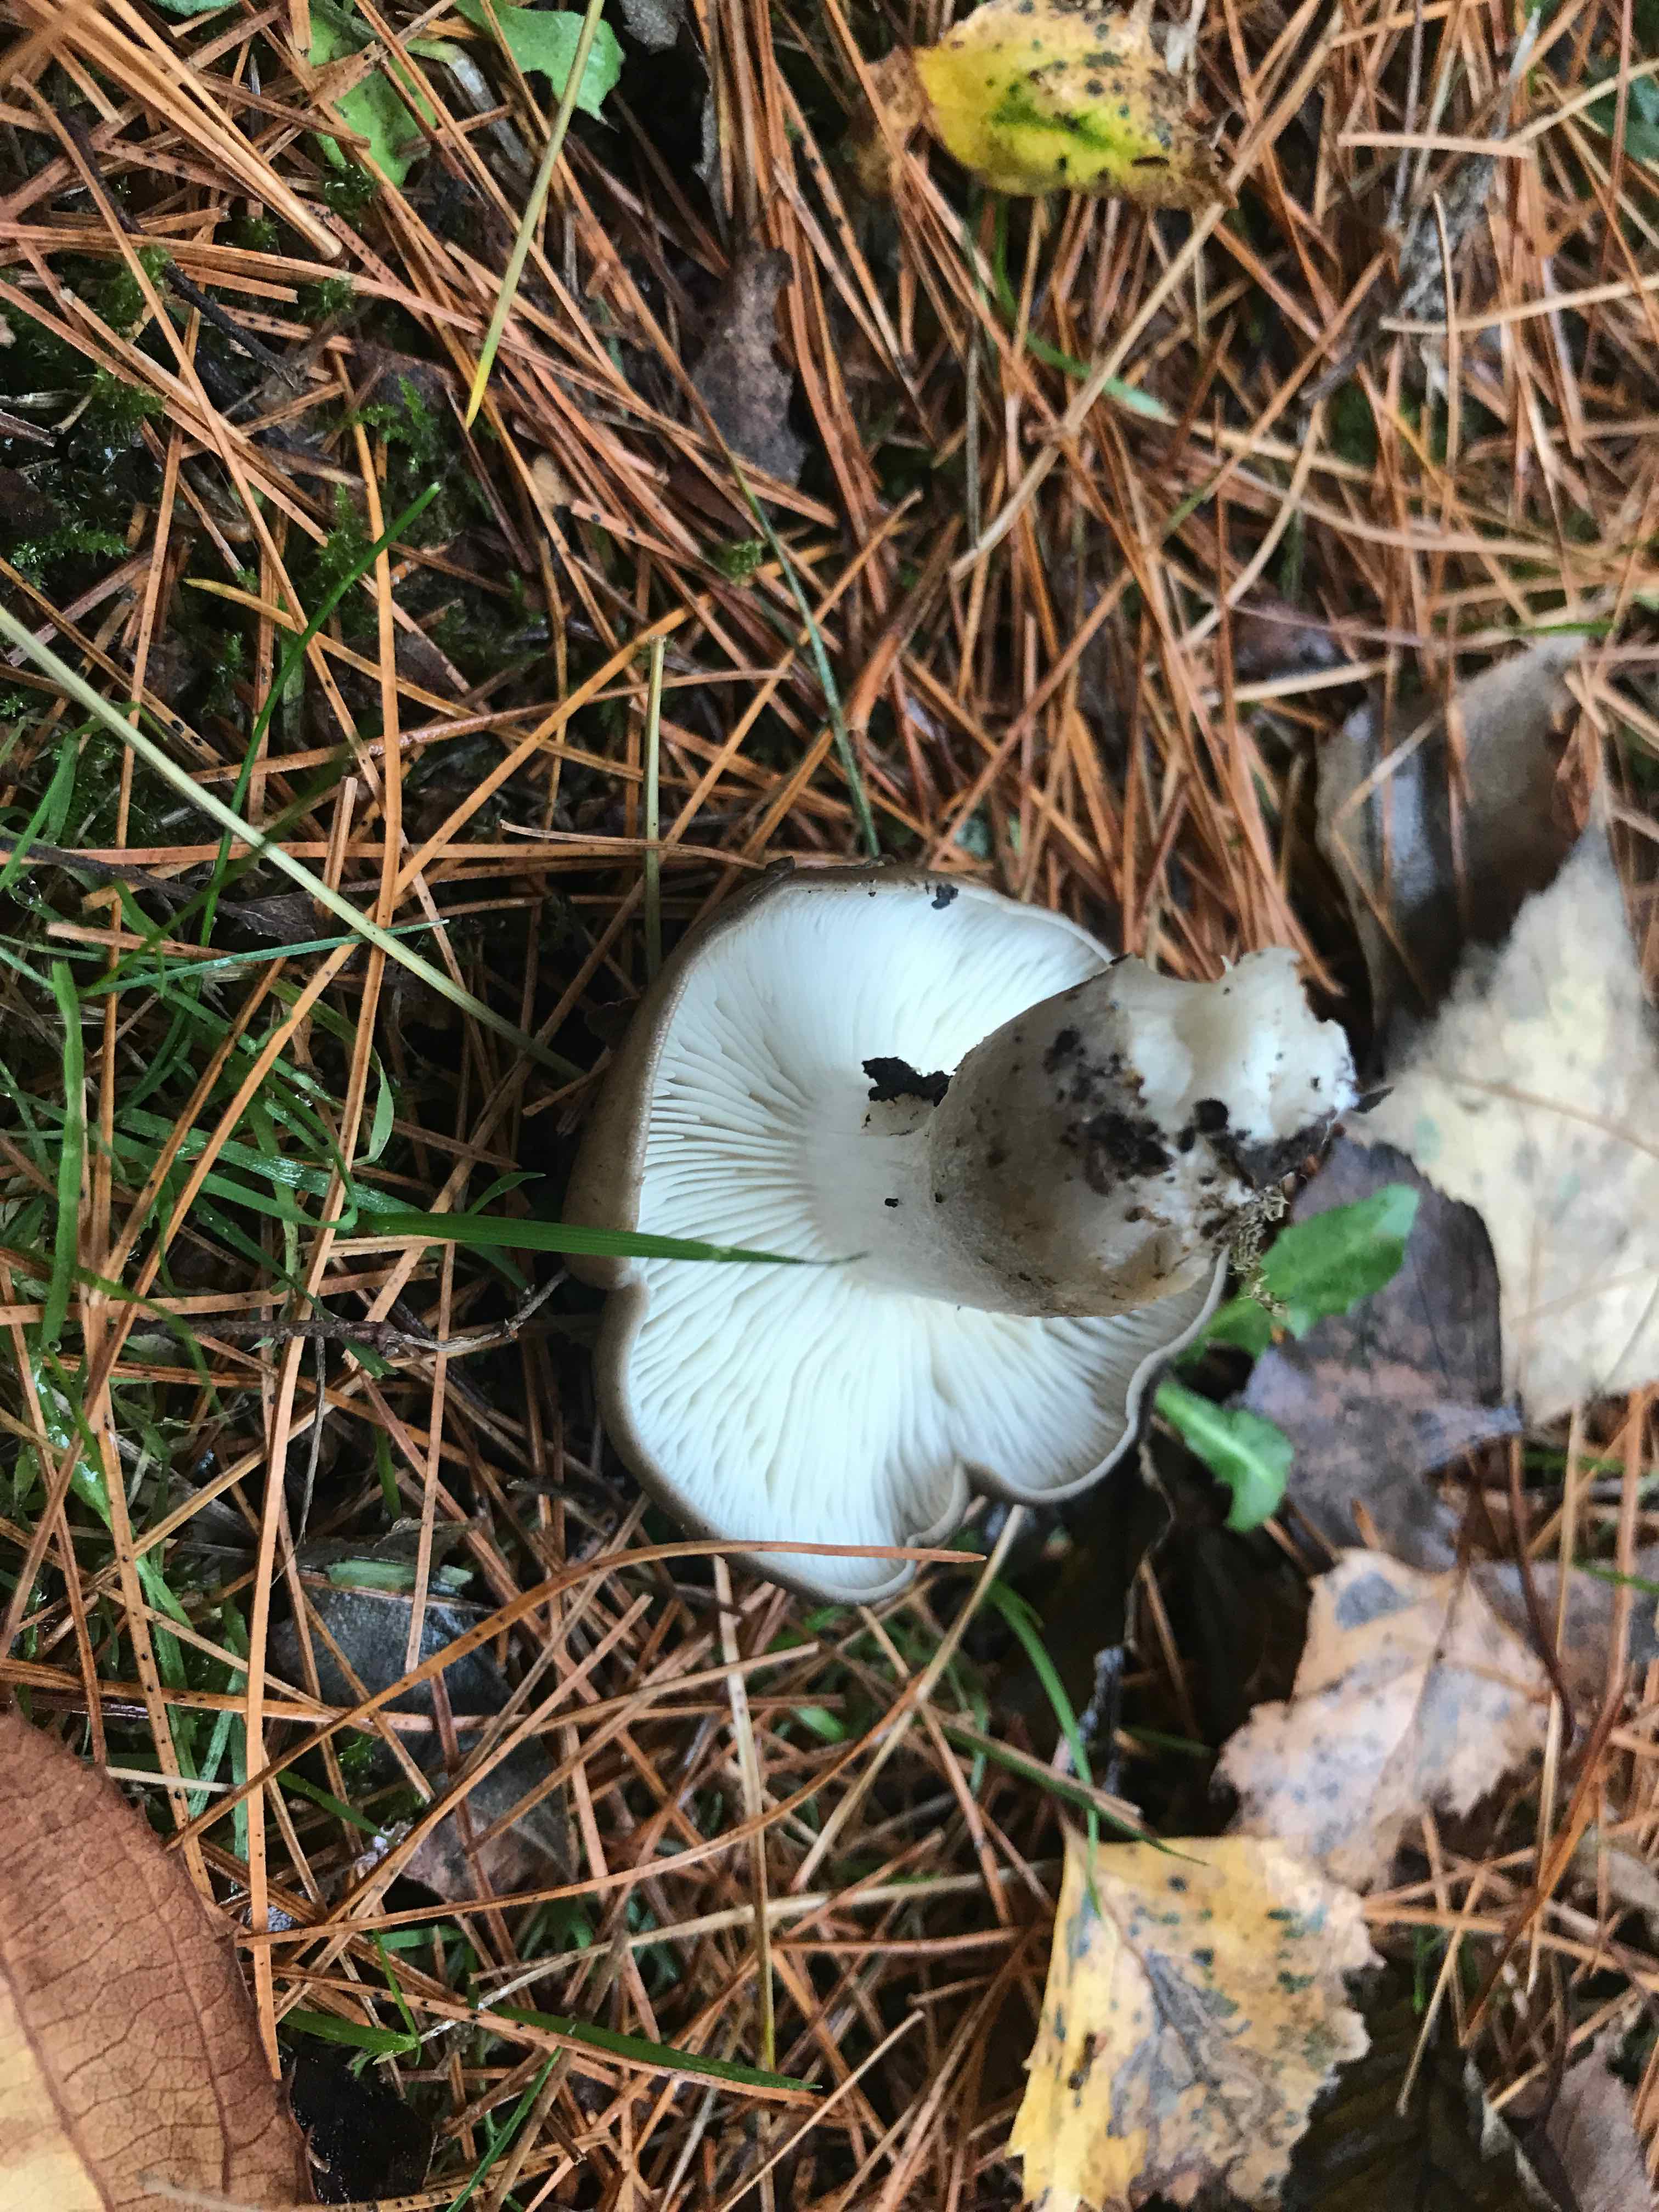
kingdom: Fungi
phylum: Basidiomycota
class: Agaricomycetes
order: Agaricales
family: Lyophyllaceae
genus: Lyophyllum
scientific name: Lyophyllum decastes
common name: røggrå gråblad
